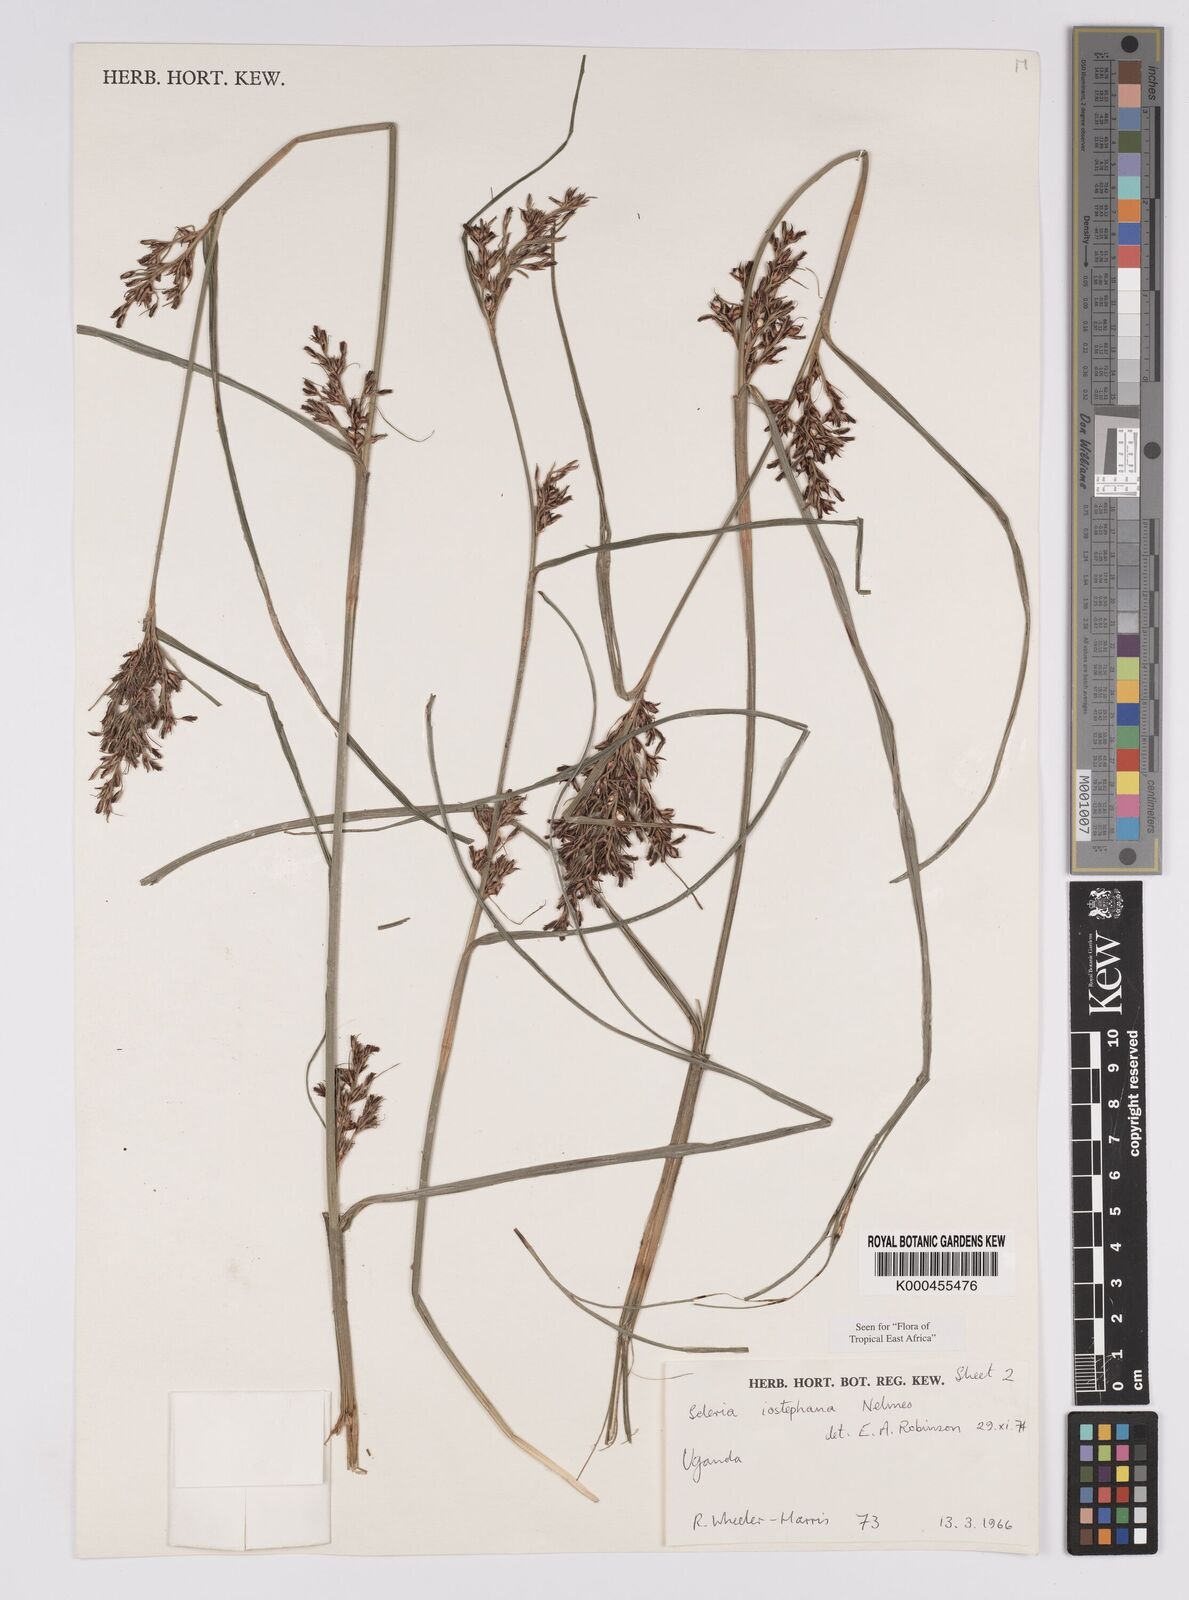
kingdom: Plantae
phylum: Tracheophyta
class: Liliopsida
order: Poales
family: Cyperaceae
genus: Scleria
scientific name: Scleria iostephana
